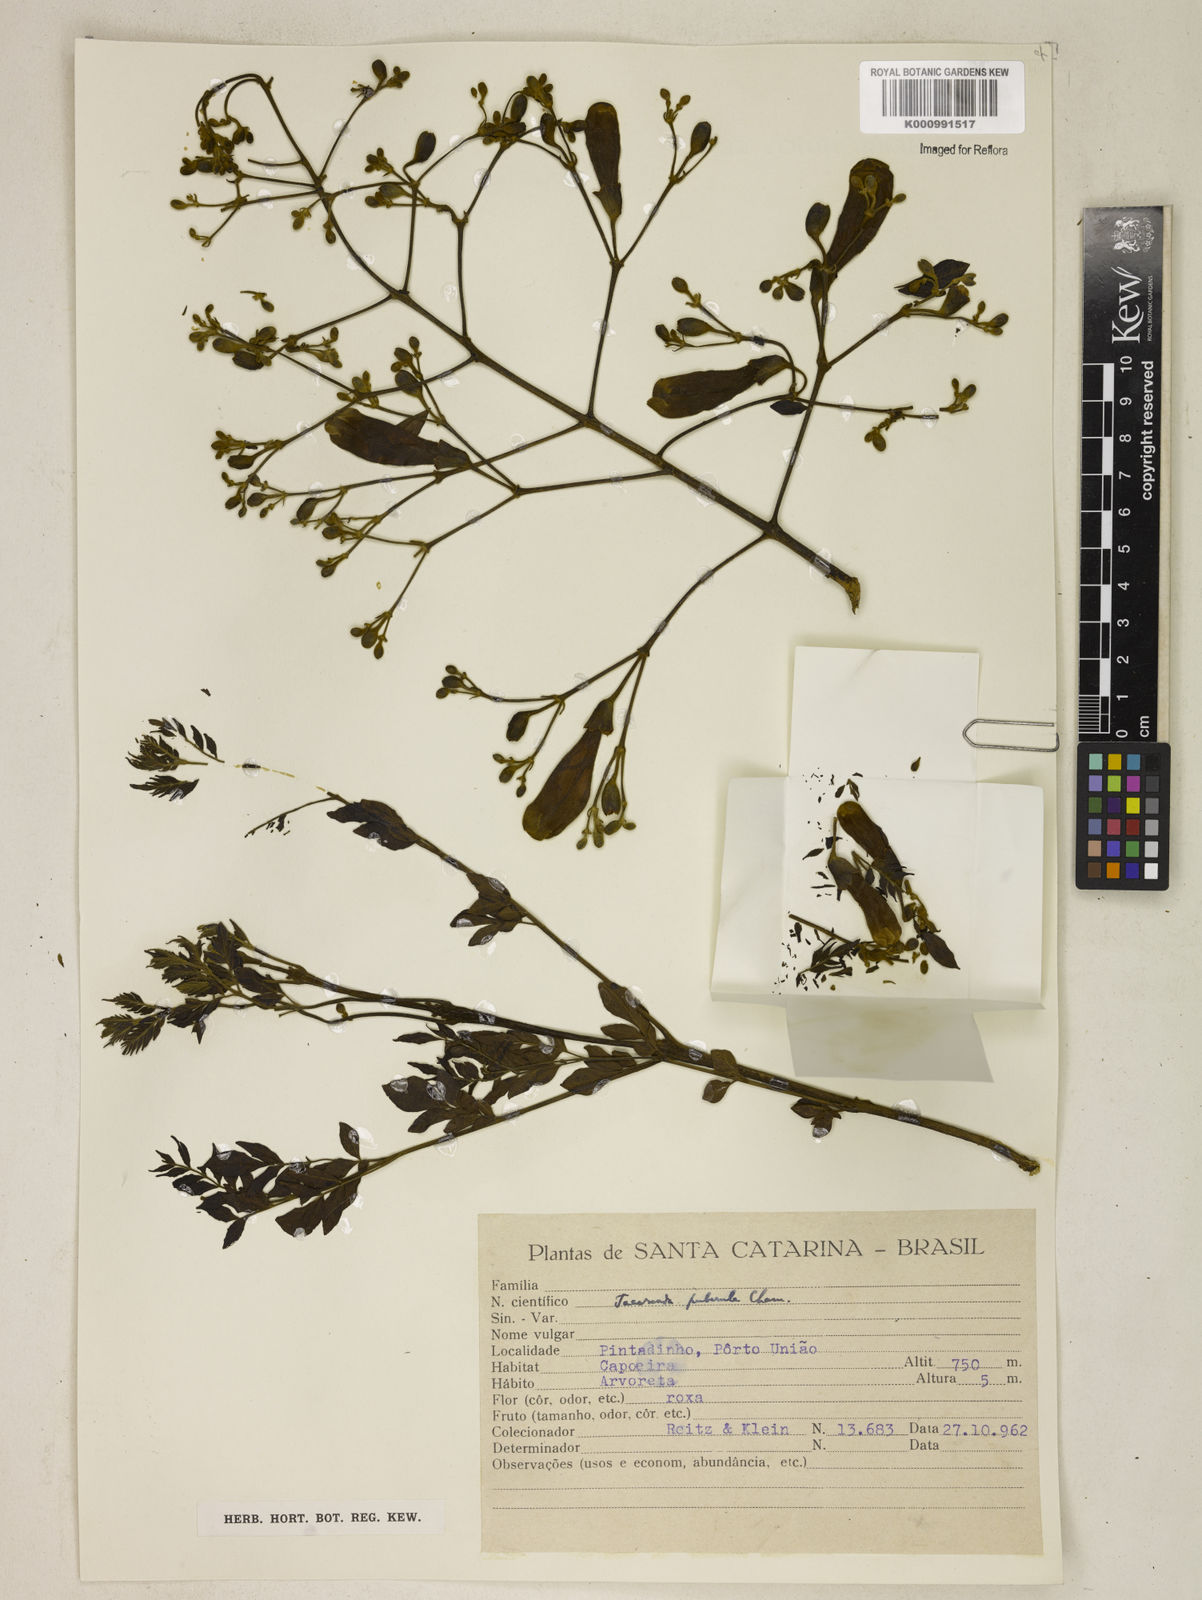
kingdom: Plantae
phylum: Tracheophyta
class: Magnoliopsida
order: Lamiales
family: Bignoniaceae
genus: Jacaranda
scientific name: Jacaranda puberula
